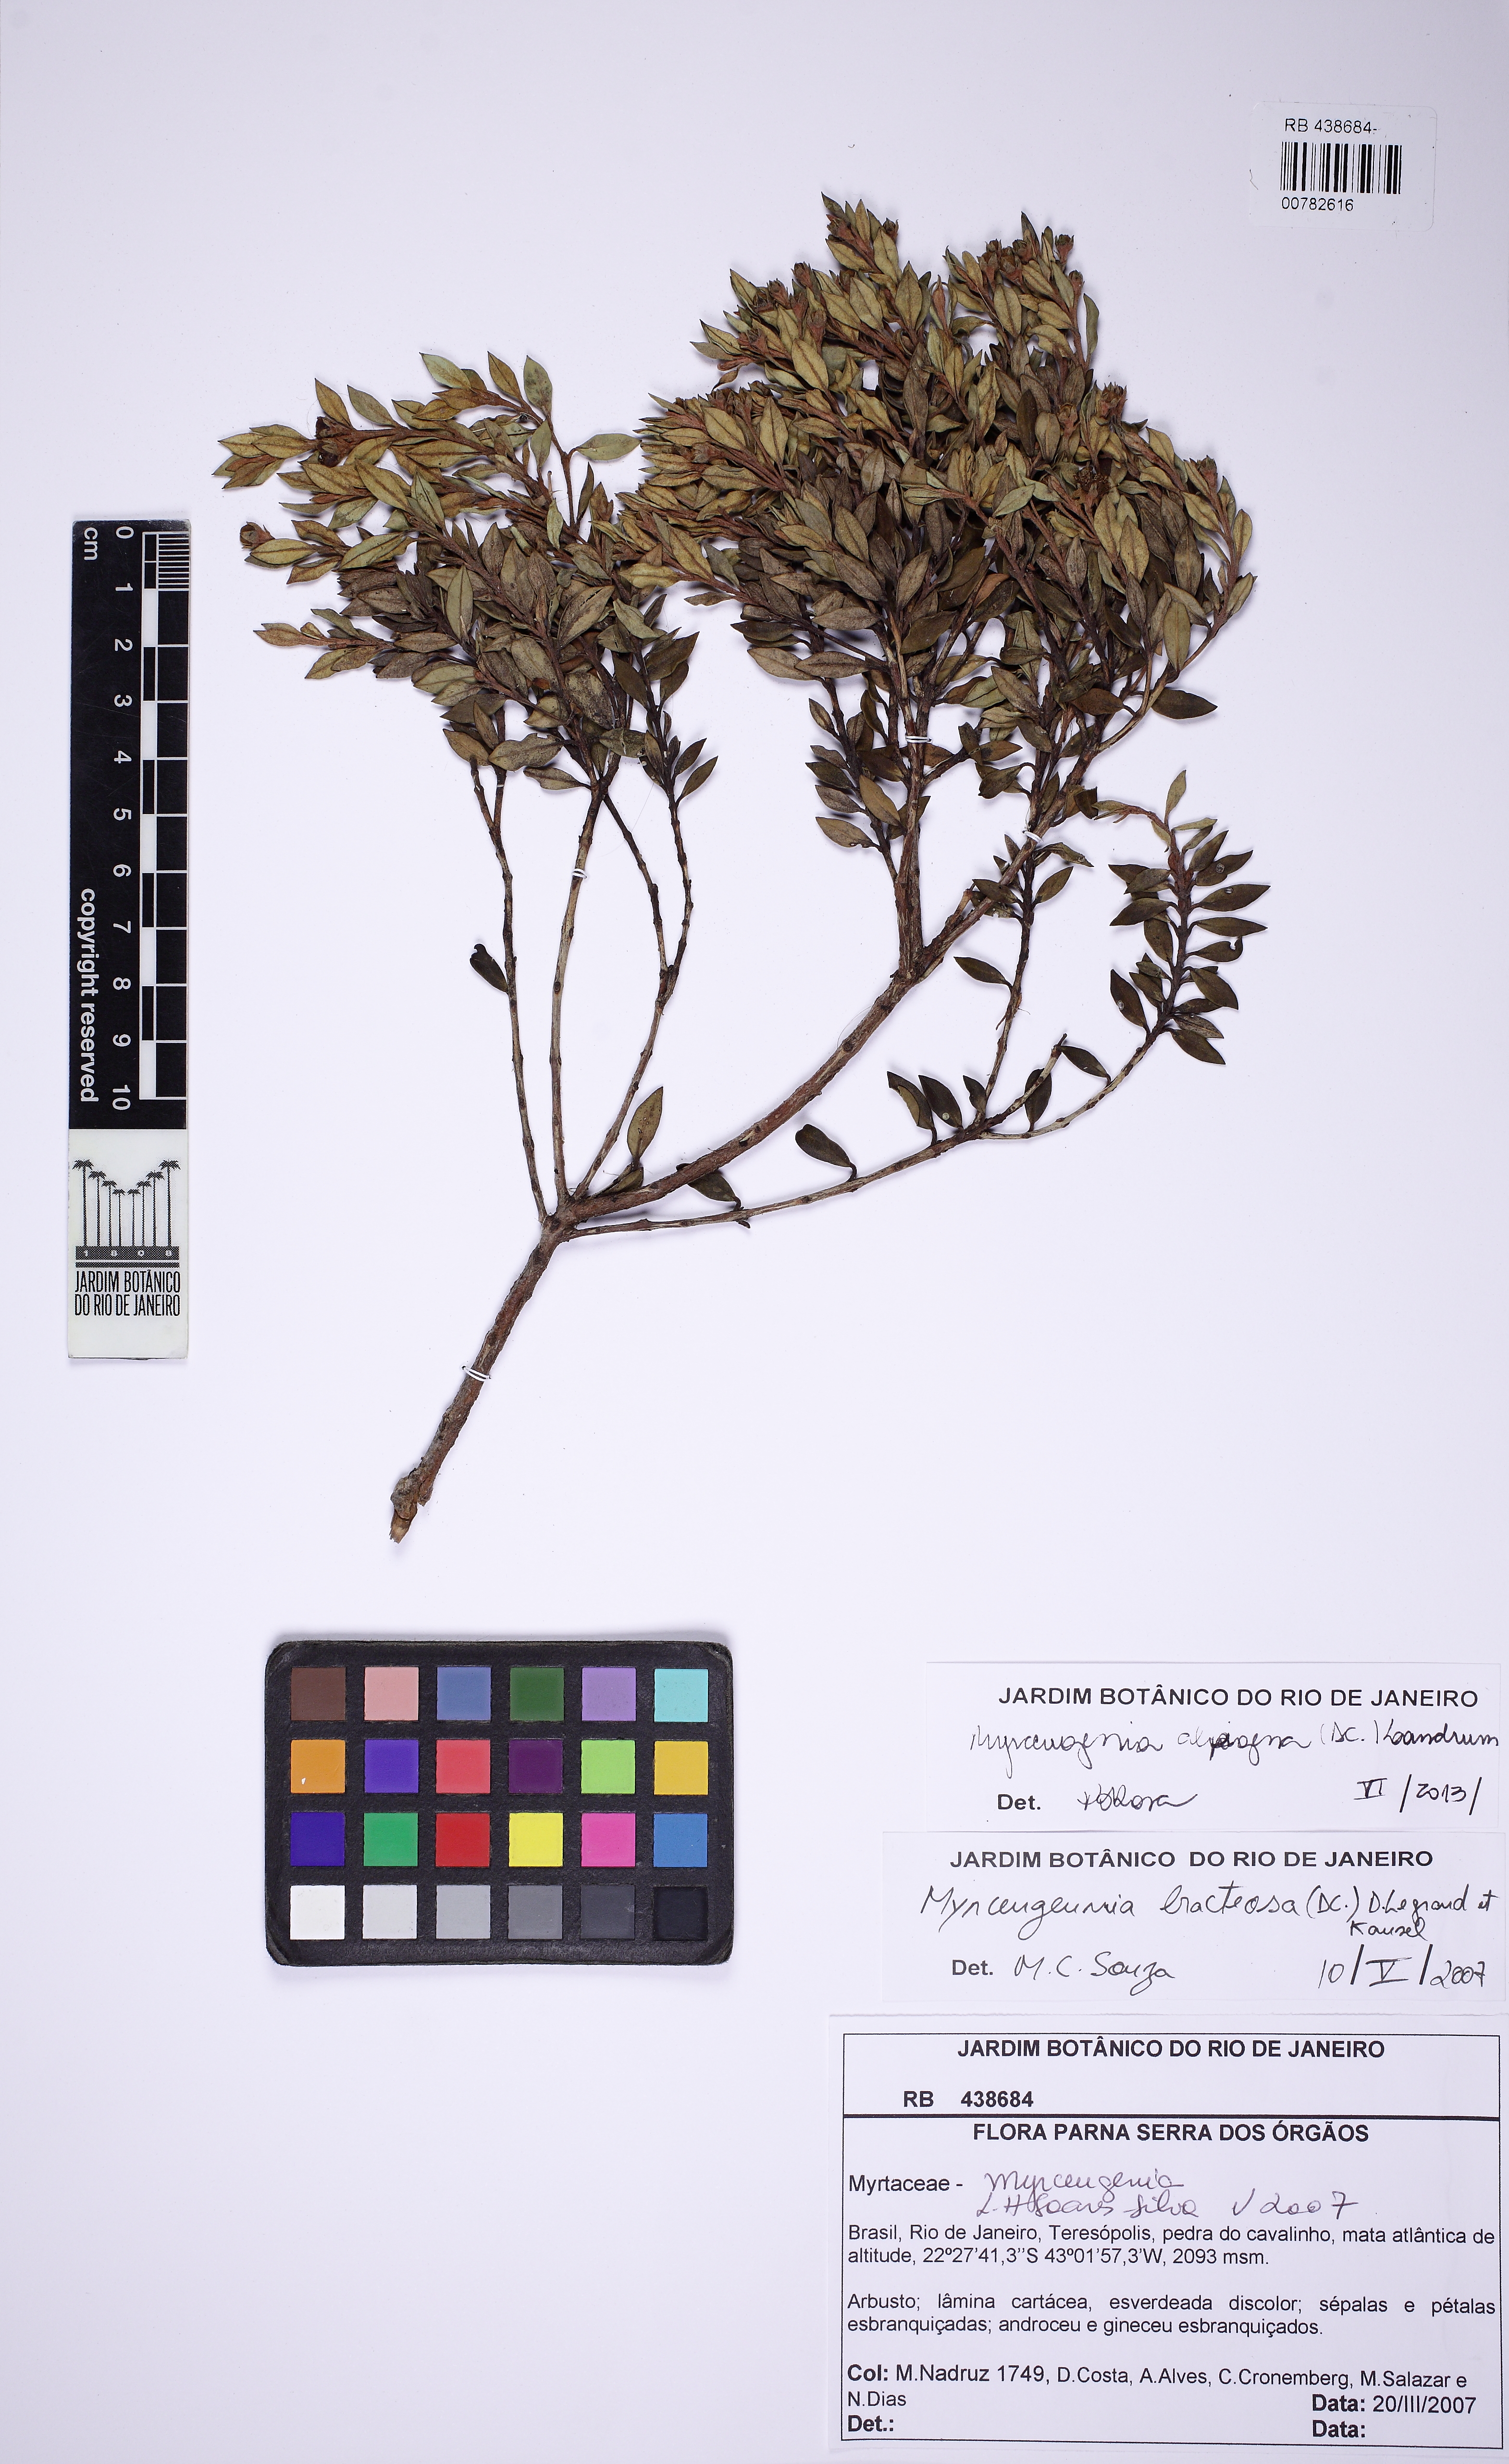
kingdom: Plantae
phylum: Tracheophyta
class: Magnoliopsida
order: Myrtales
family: Myrtaceae
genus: Myrceugenia
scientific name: Myrceugenia alpigena
